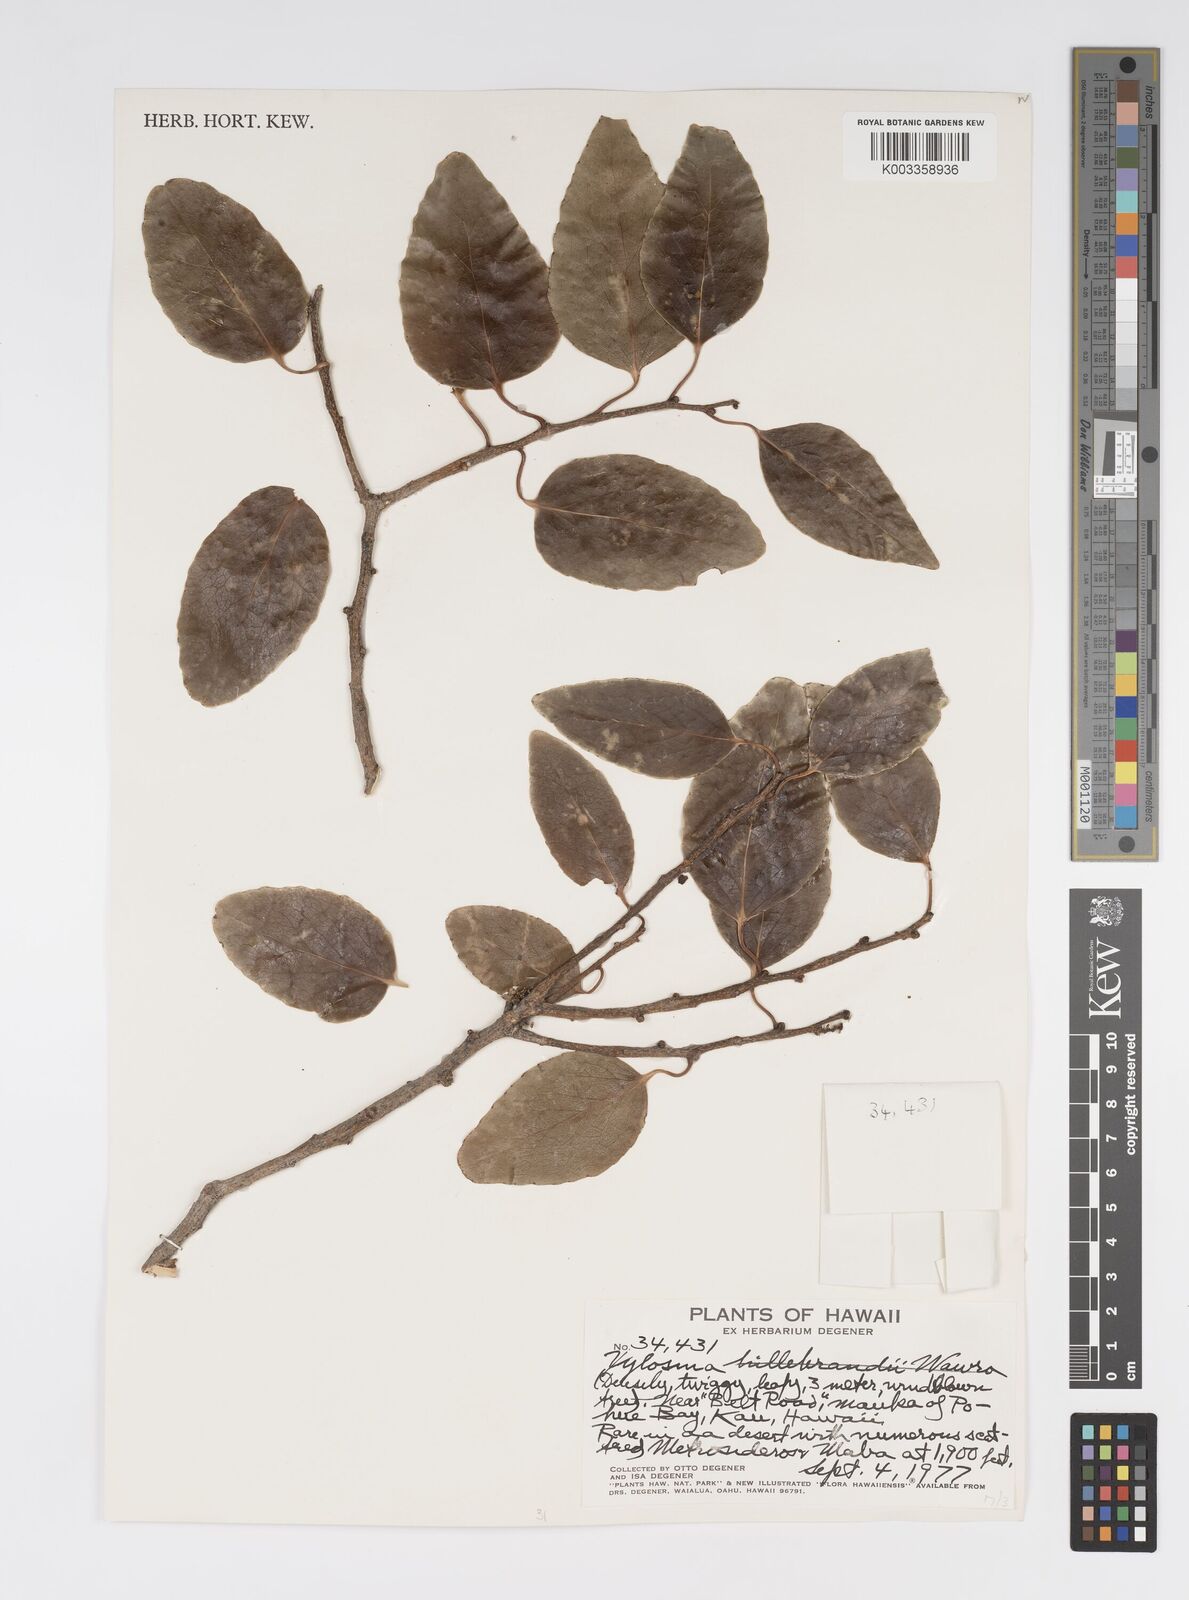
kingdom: Plantae
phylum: Tracheophyta
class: Magnoliopsida
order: Malpighiales
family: Salicaceae
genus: Xylosma
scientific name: Xylosma hawaiense
